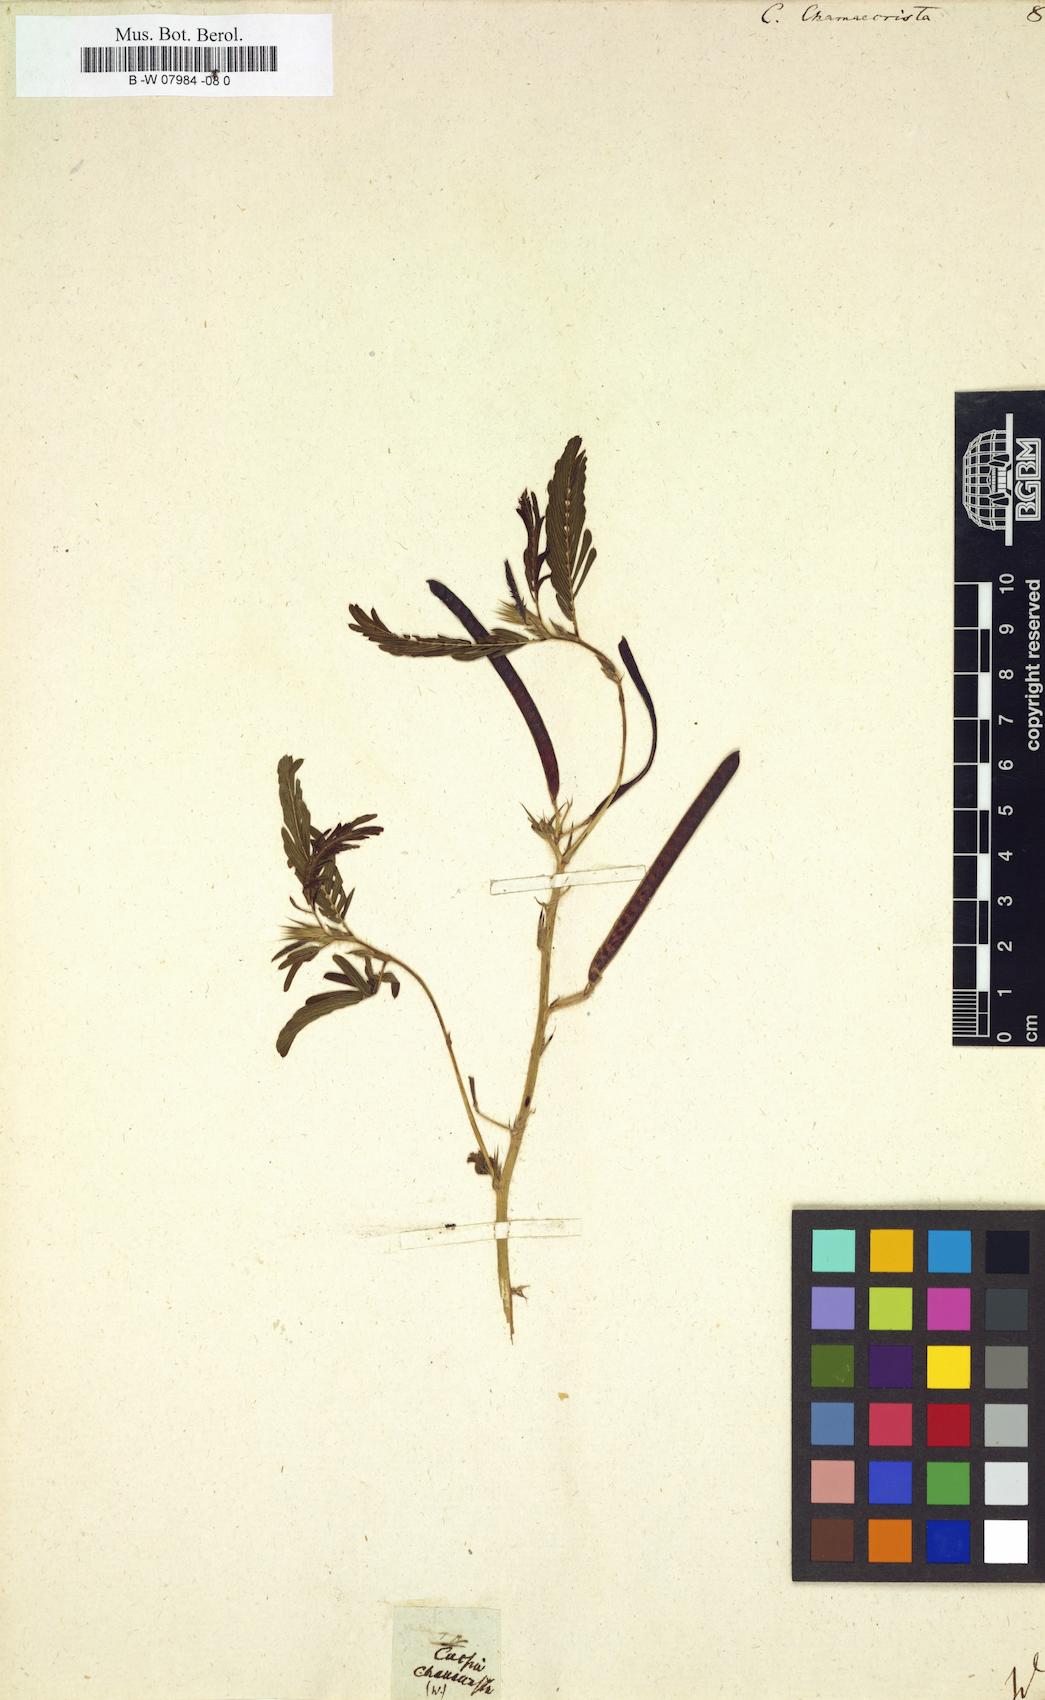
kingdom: Plantae
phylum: Tracheophyta
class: Magnoliopsida
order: Fabales
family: Fabaceae
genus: Chamaecrista
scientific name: Chamaecrista
